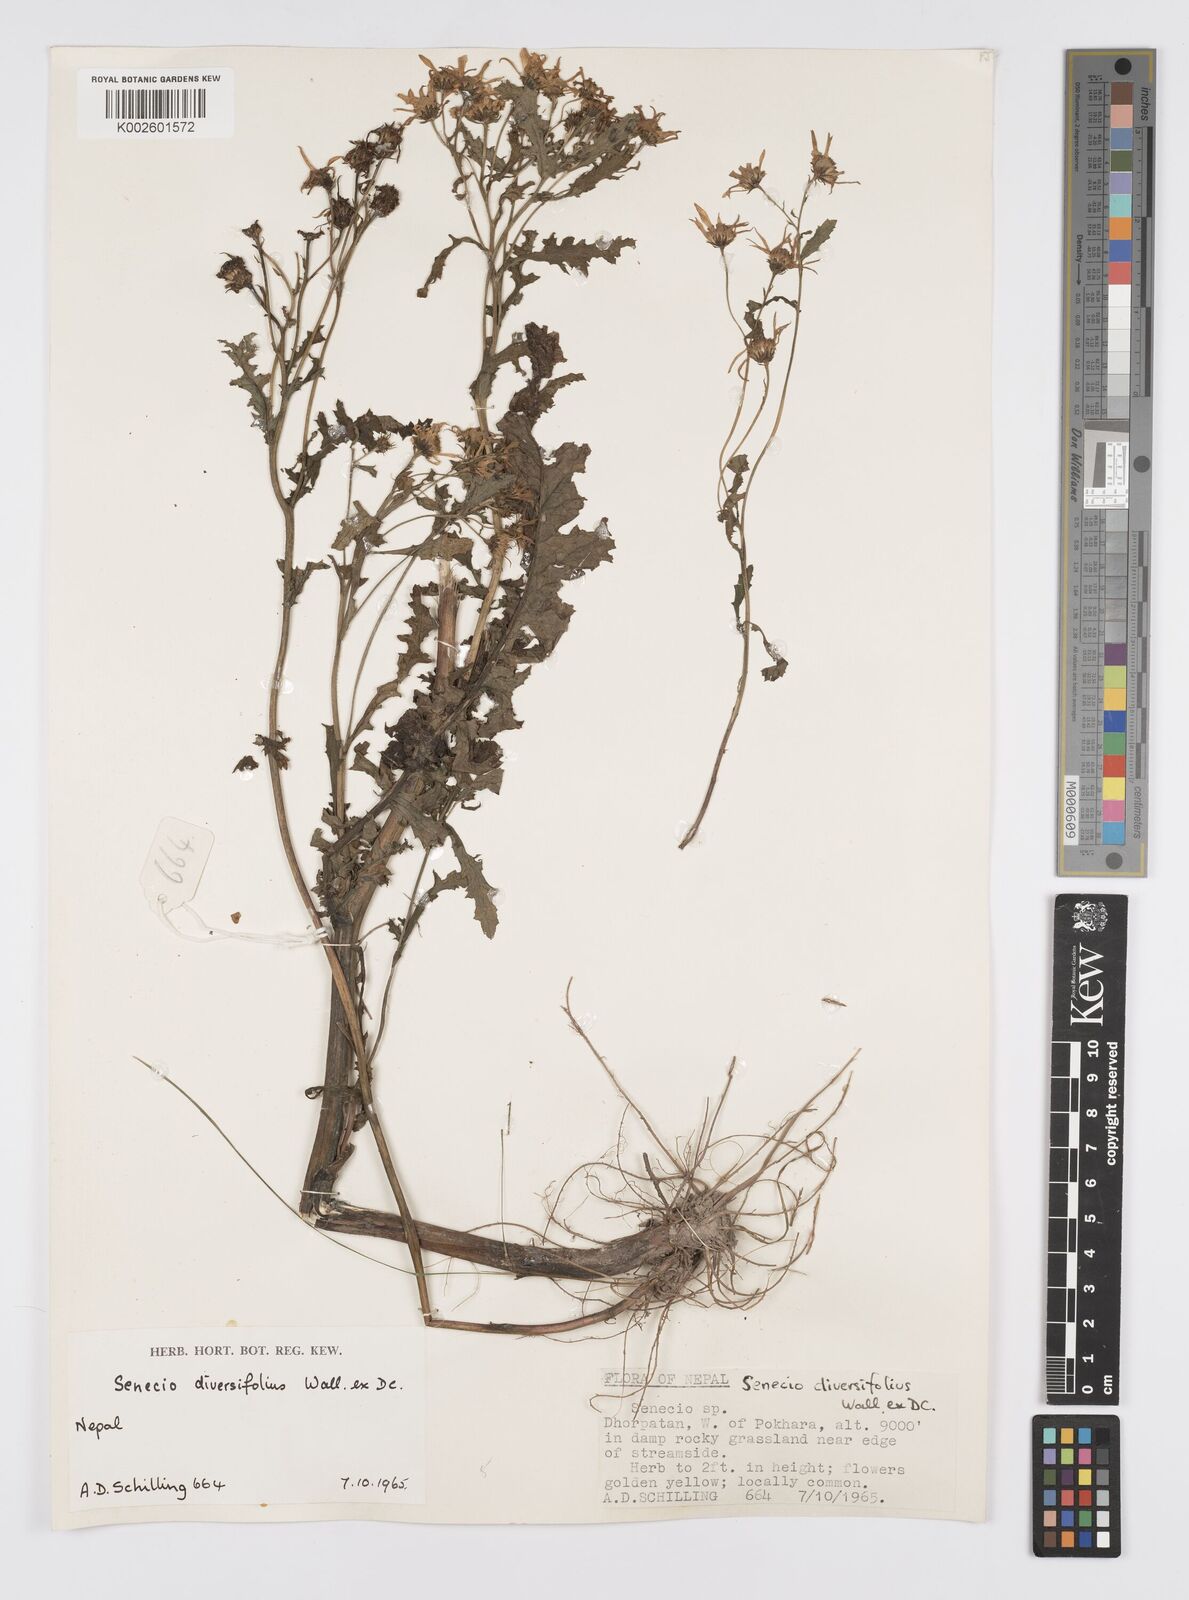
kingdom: Plantae
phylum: Tracheophyta
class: Magnoliopsida
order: Asterales
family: Asteraceae
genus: Jacobaea
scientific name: Jacobaea raphanifolia
